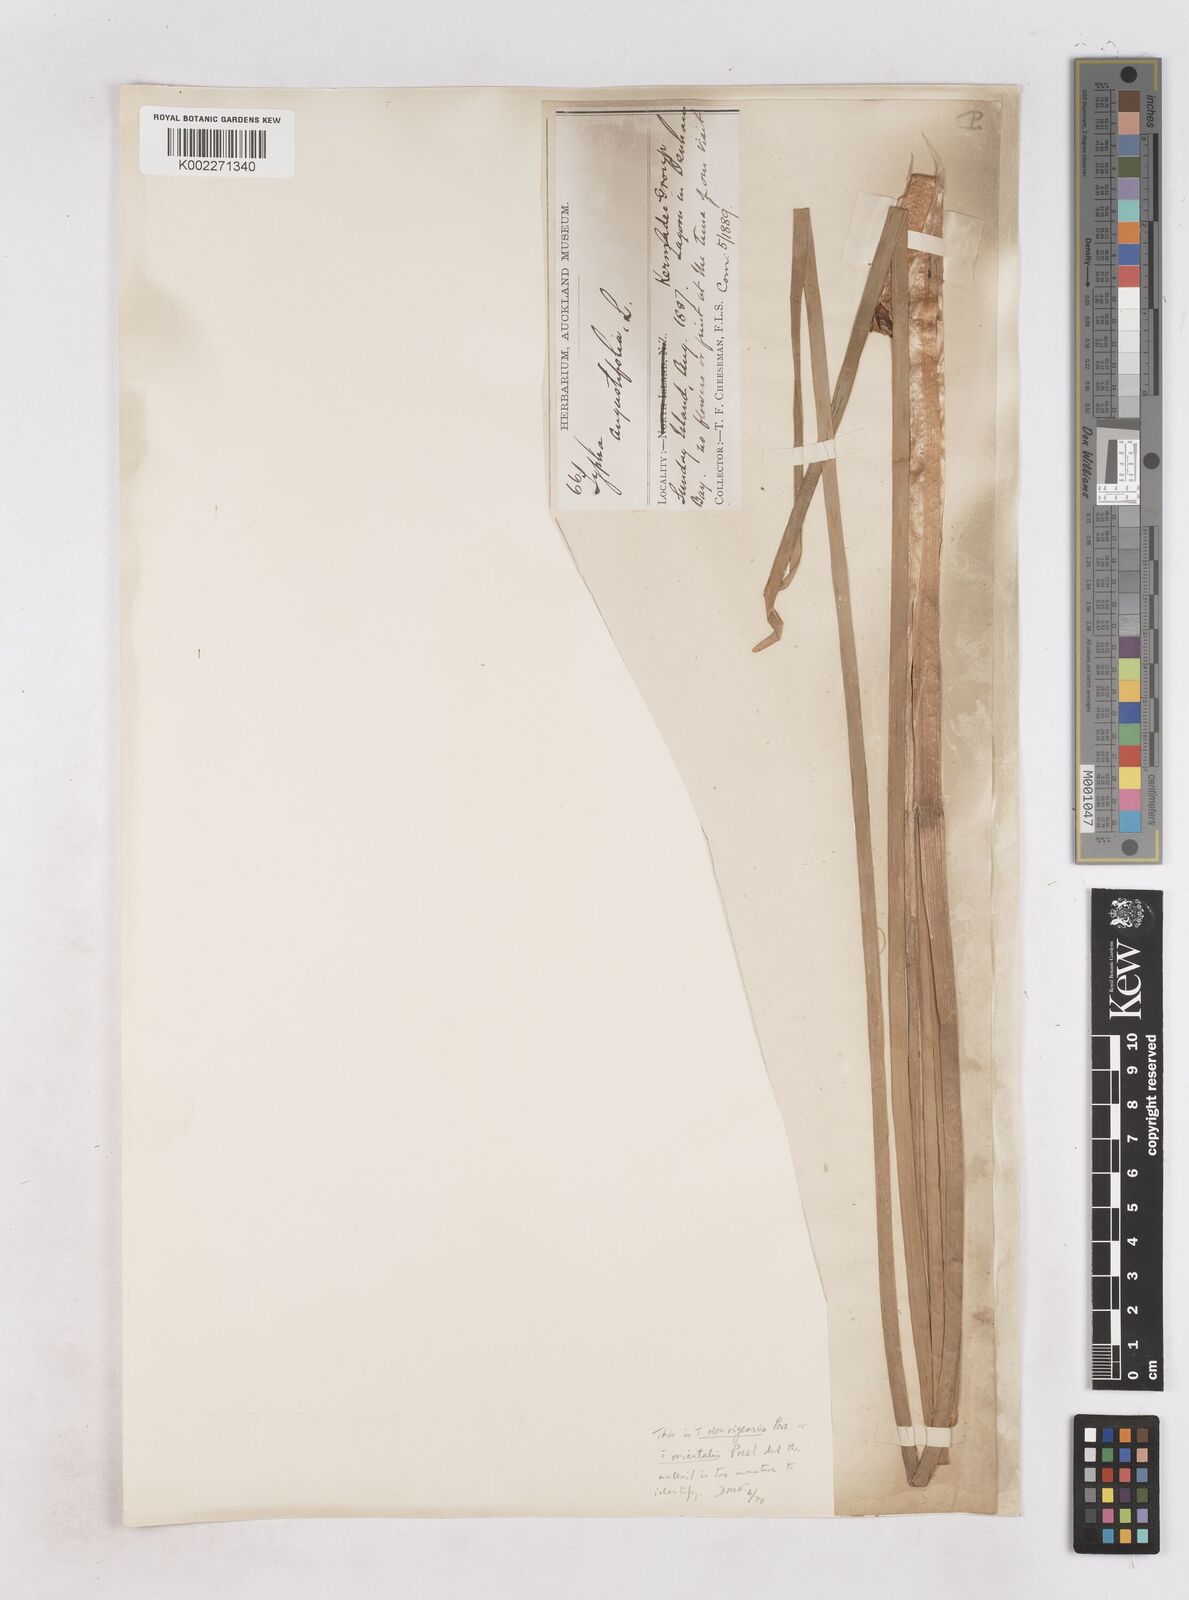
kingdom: Plantae
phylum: Tracheophyta
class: Liliopsida
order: Poales
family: Typhaceae
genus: Typha
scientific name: Typha domingensis
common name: Southern cattail
